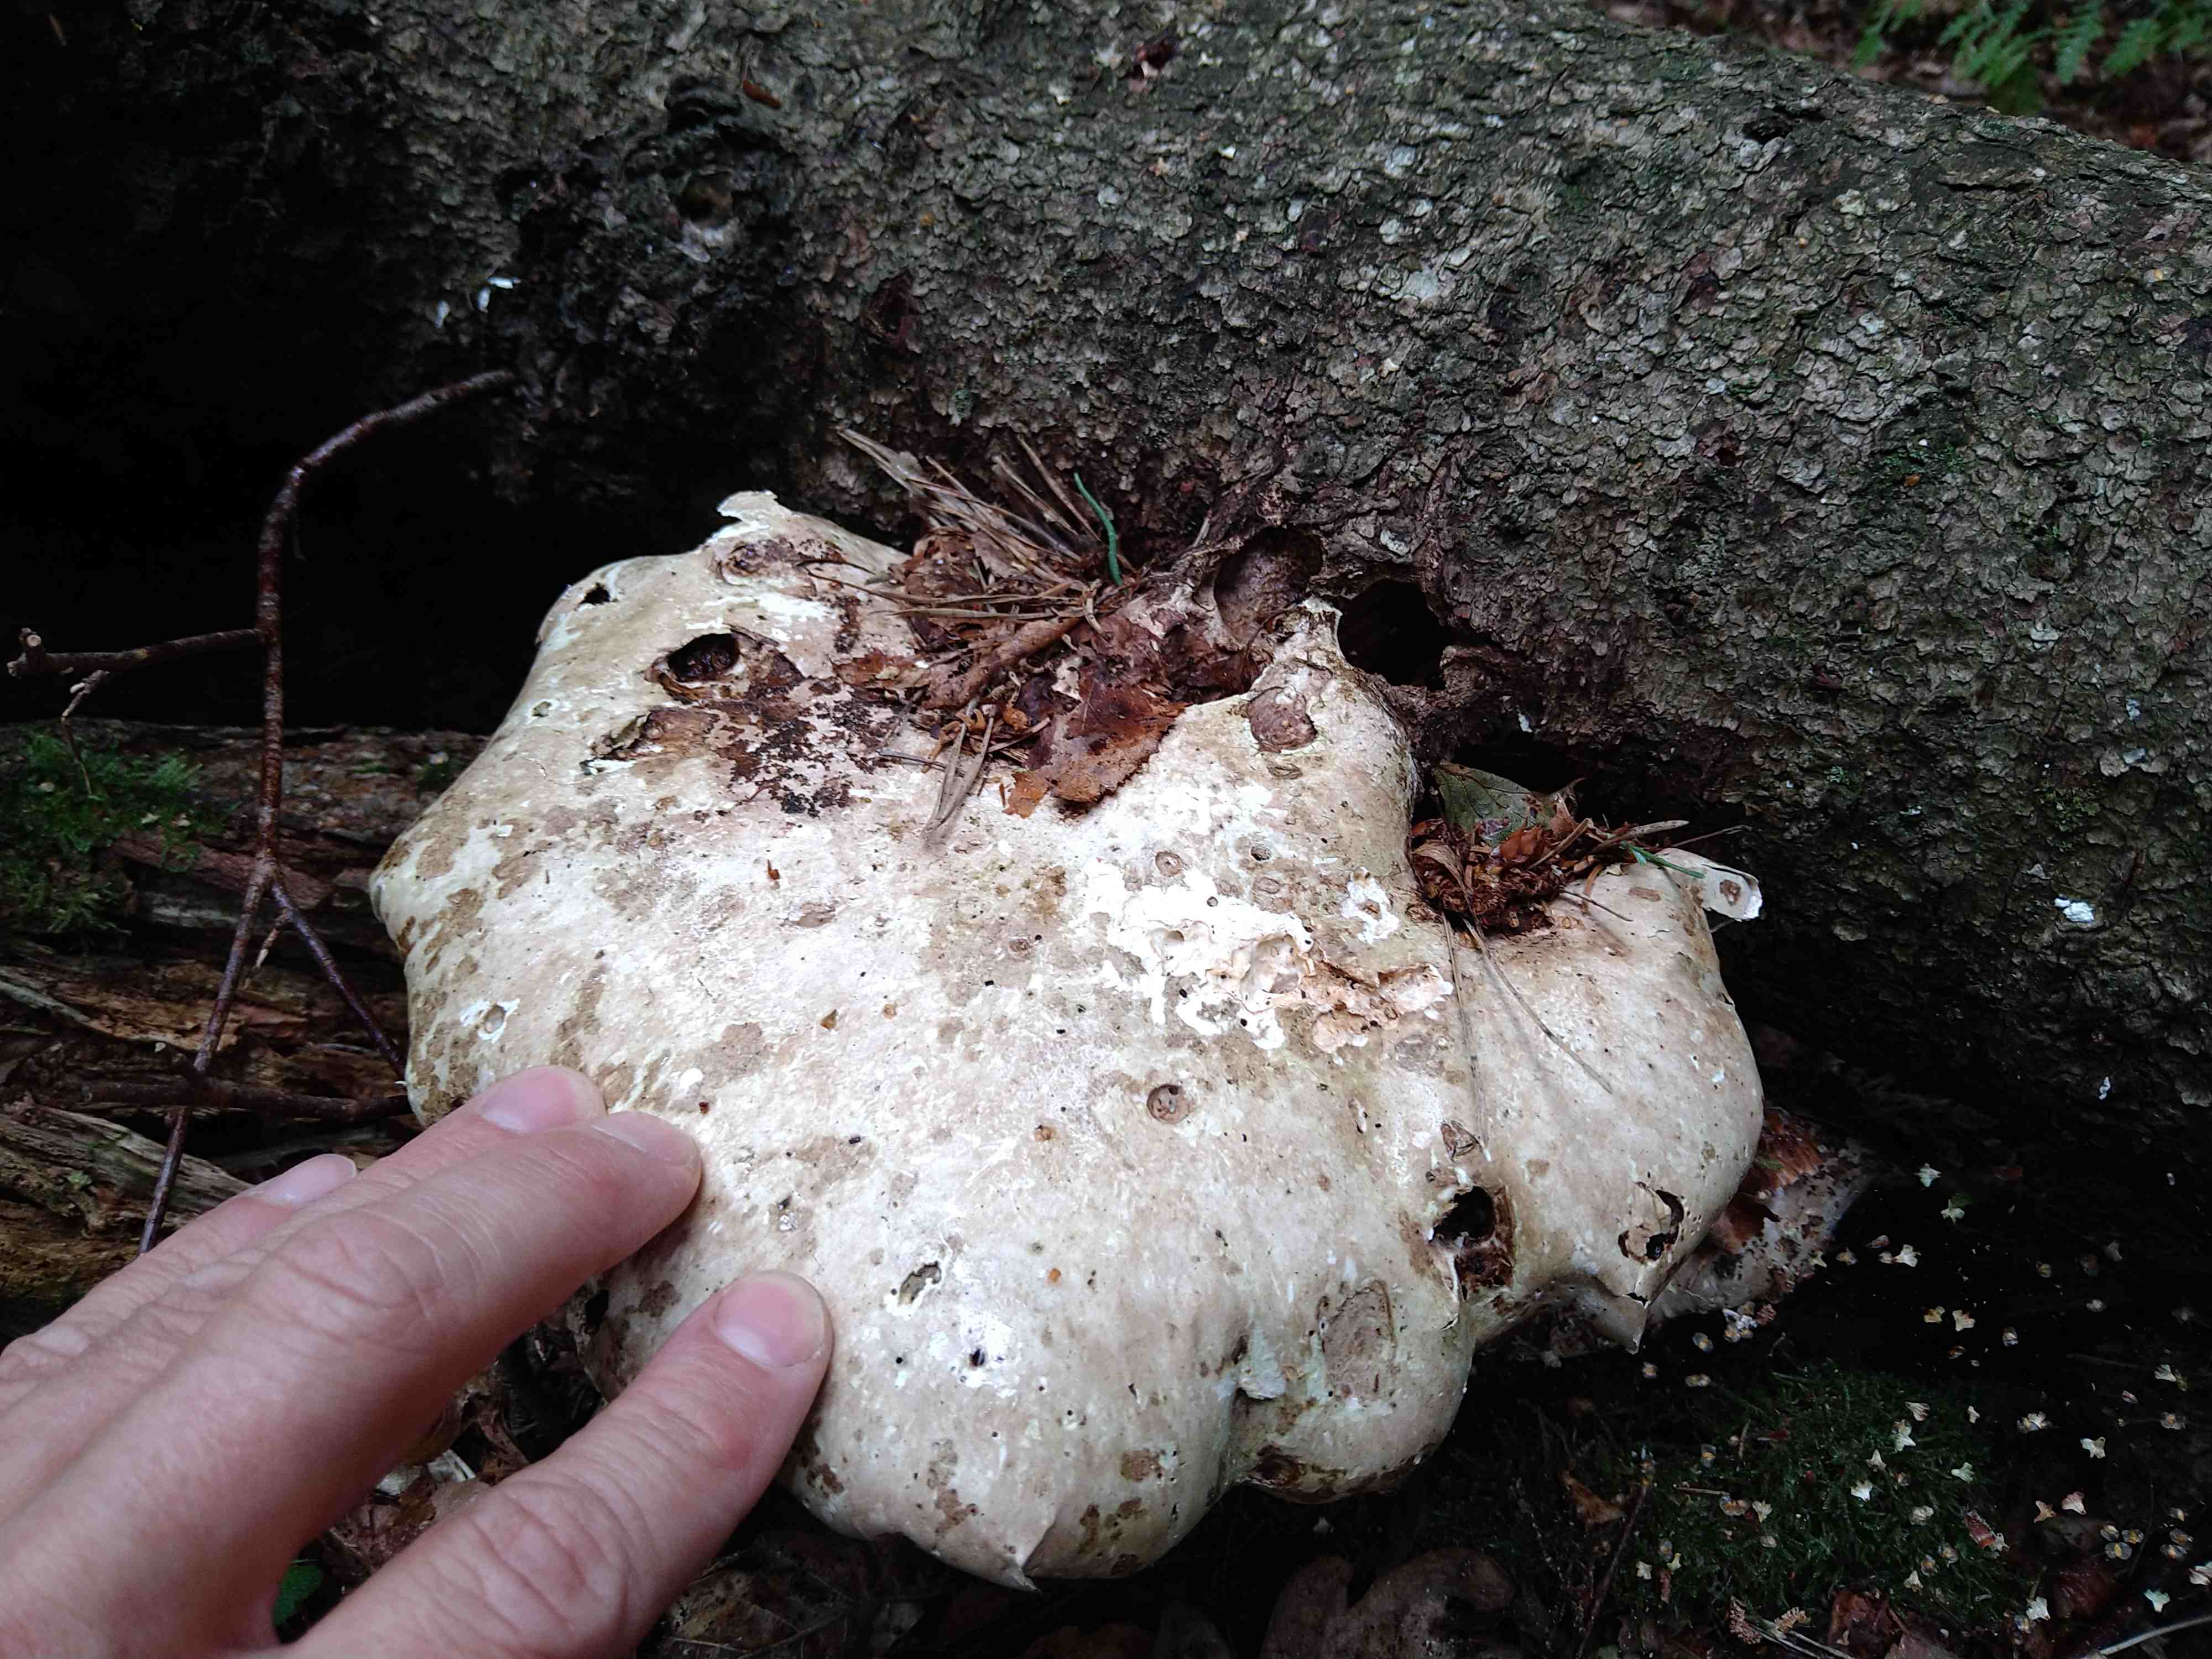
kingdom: Fungi
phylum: Basidiomycota
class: Agaricomycetes
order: Polyporales
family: Fomitopsidaceae
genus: Fomitopsis
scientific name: Fomitopsis betulina
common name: birkeporesvamp
